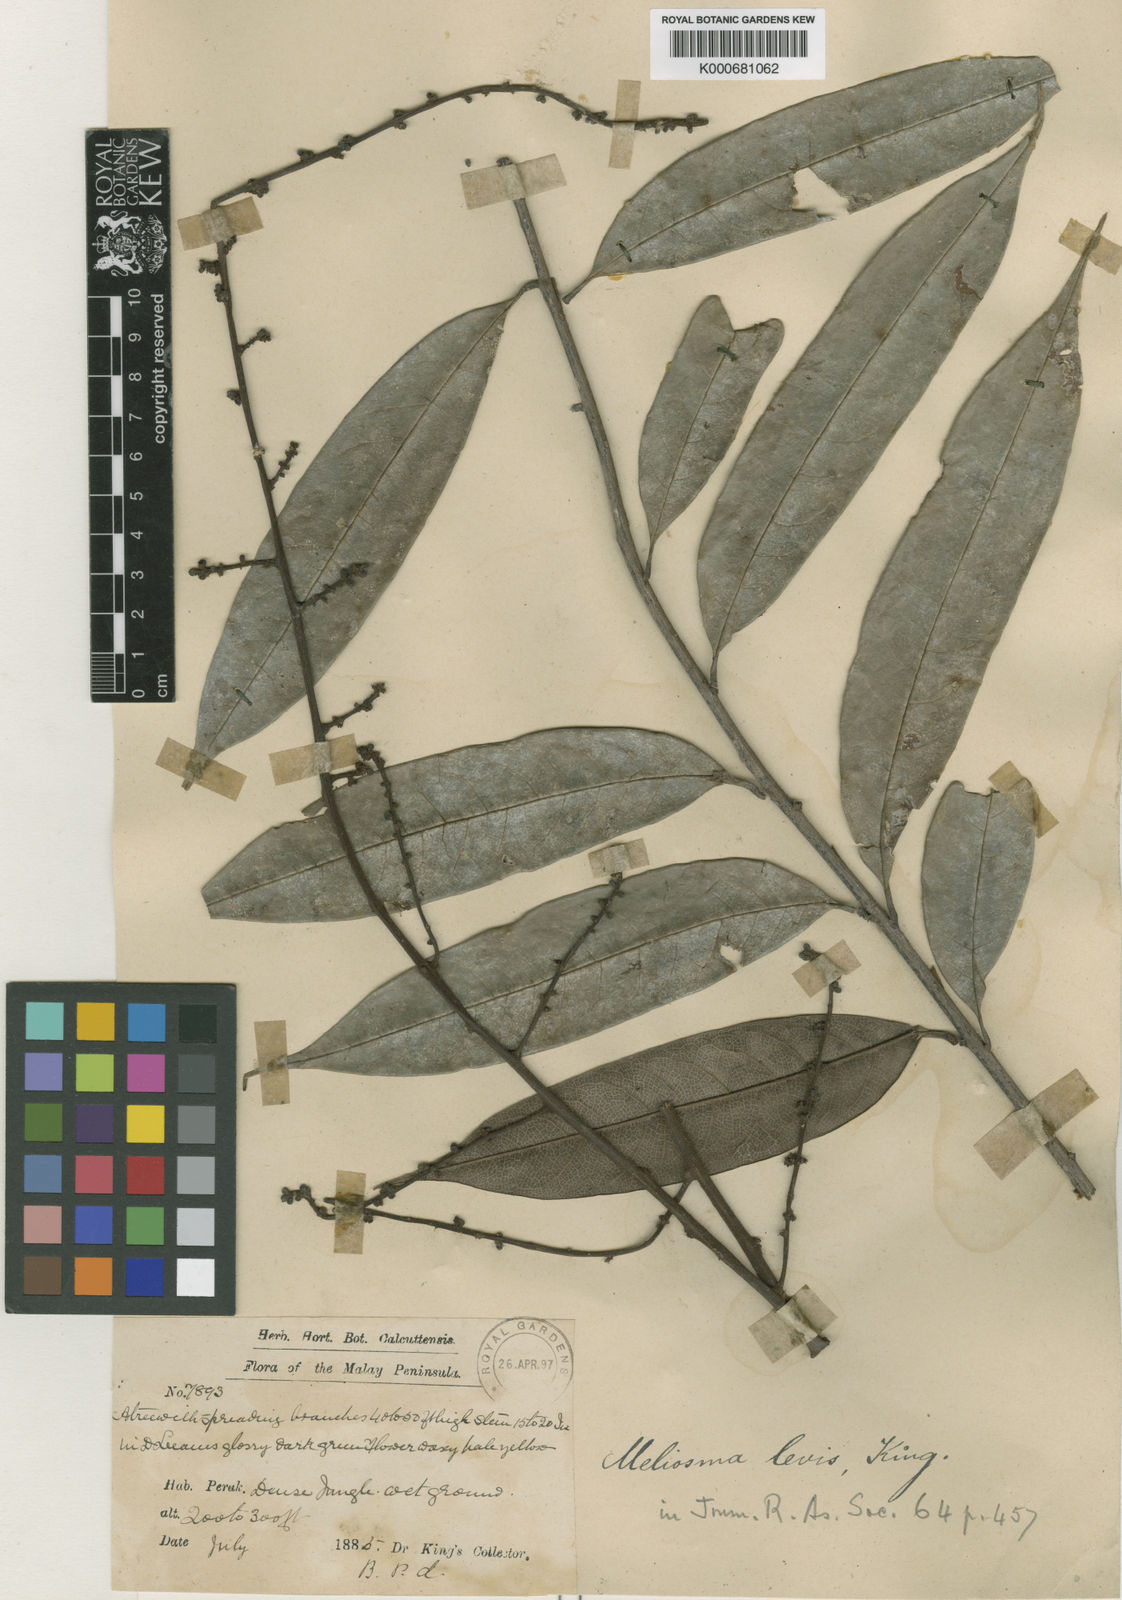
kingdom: Plantae
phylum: Tracheophyta
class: Magnoliopsida
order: Proteales
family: Sabiaceae
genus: Meliosma
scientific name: Meliosma lanceolata
